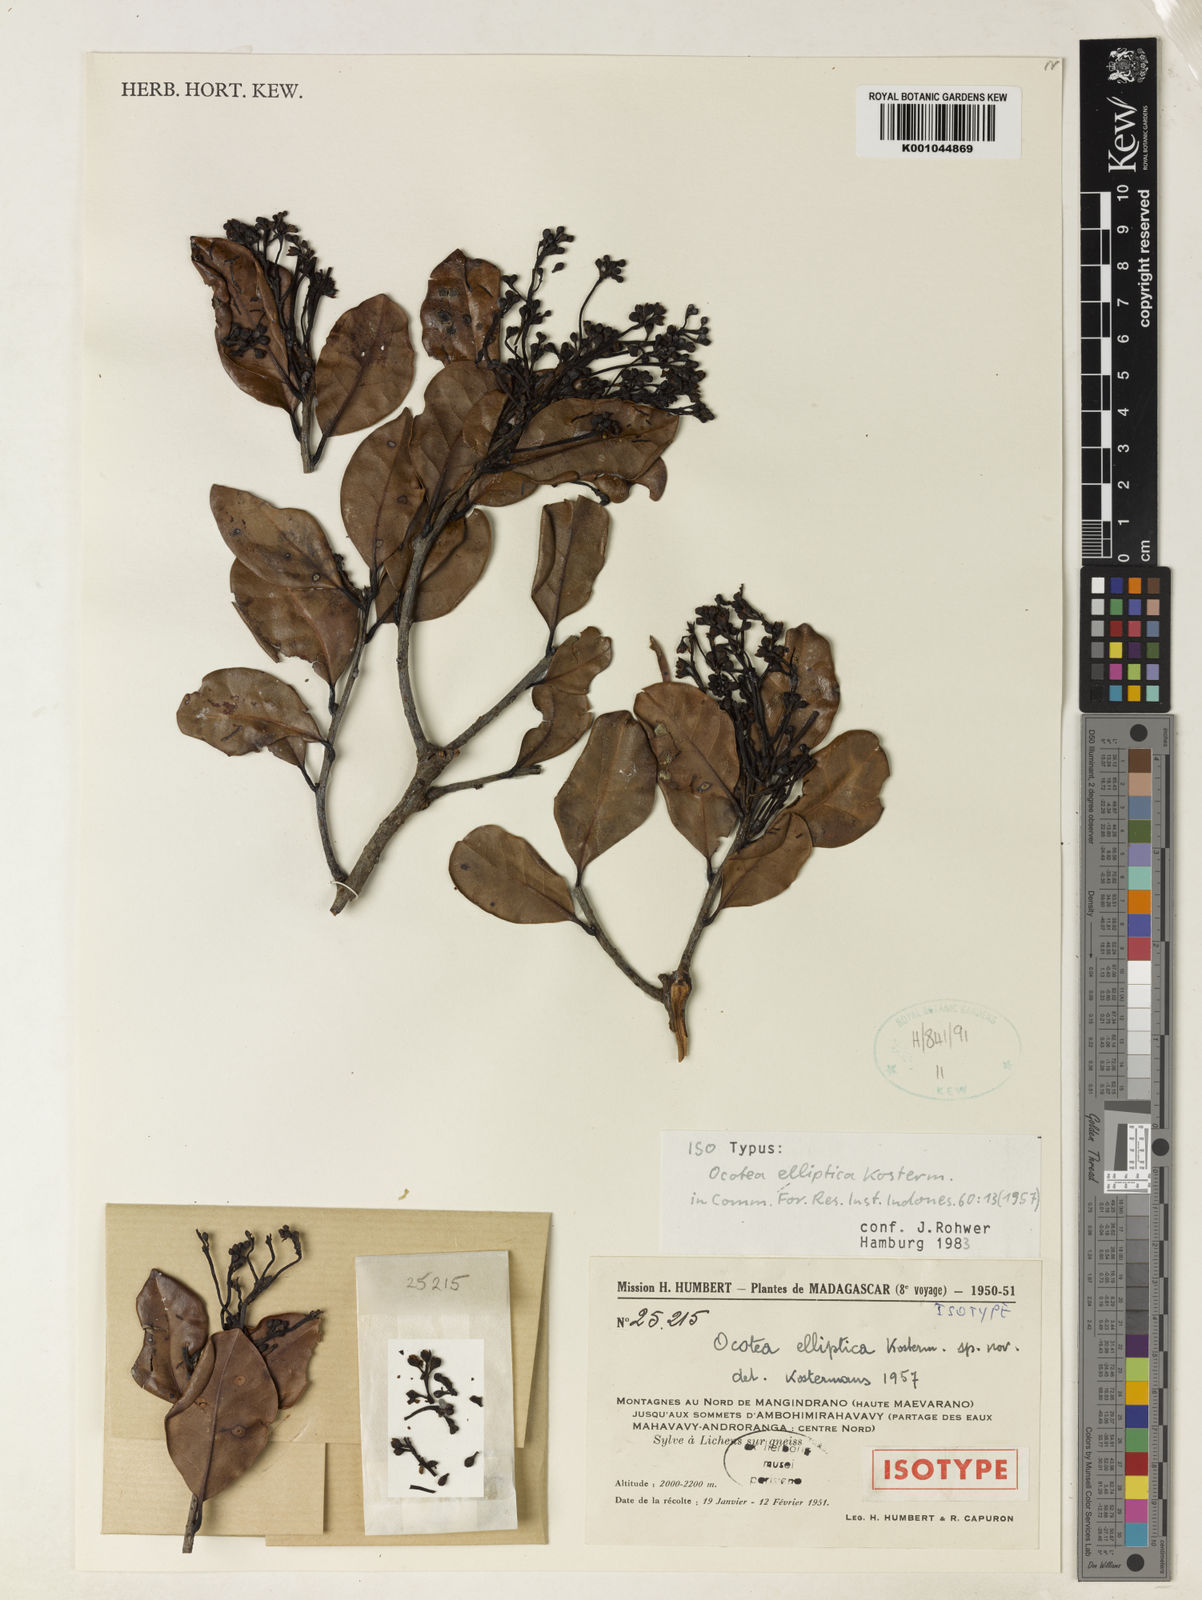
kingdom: Plantae
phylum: Tracheophyta
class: Magnoliopsida
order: Laurales
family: Lauraceae
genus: Ocotea
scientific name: Ocotea elliptica
